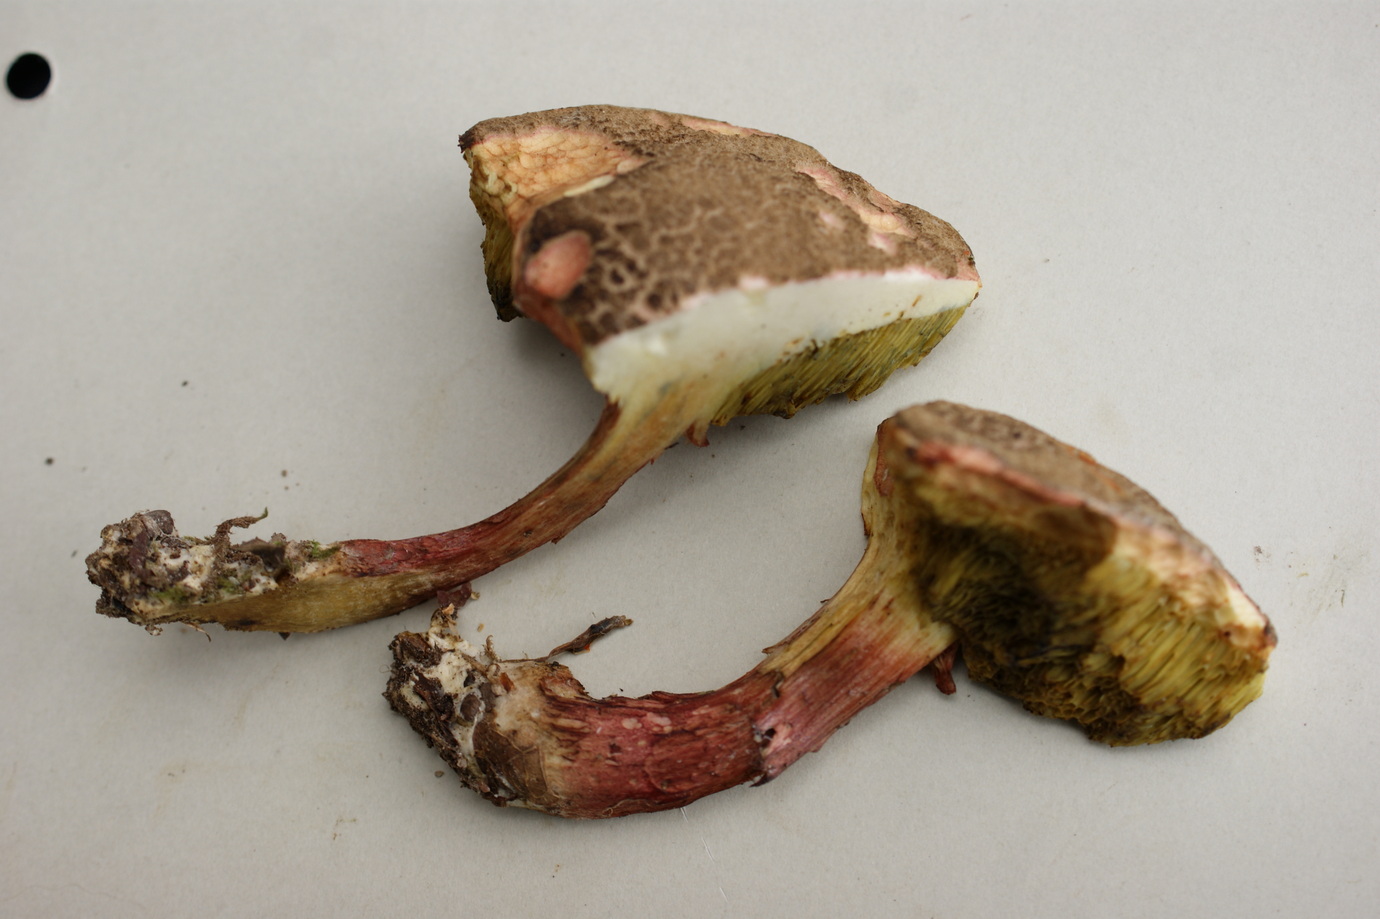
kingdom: Fungi
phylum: Basidiomycota
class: Agaricomycetes
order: Boletales
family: Boletaceae
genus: Xerocomellus
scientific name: Xerocomellus chrysenteron
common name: rødsprukken rørhat
